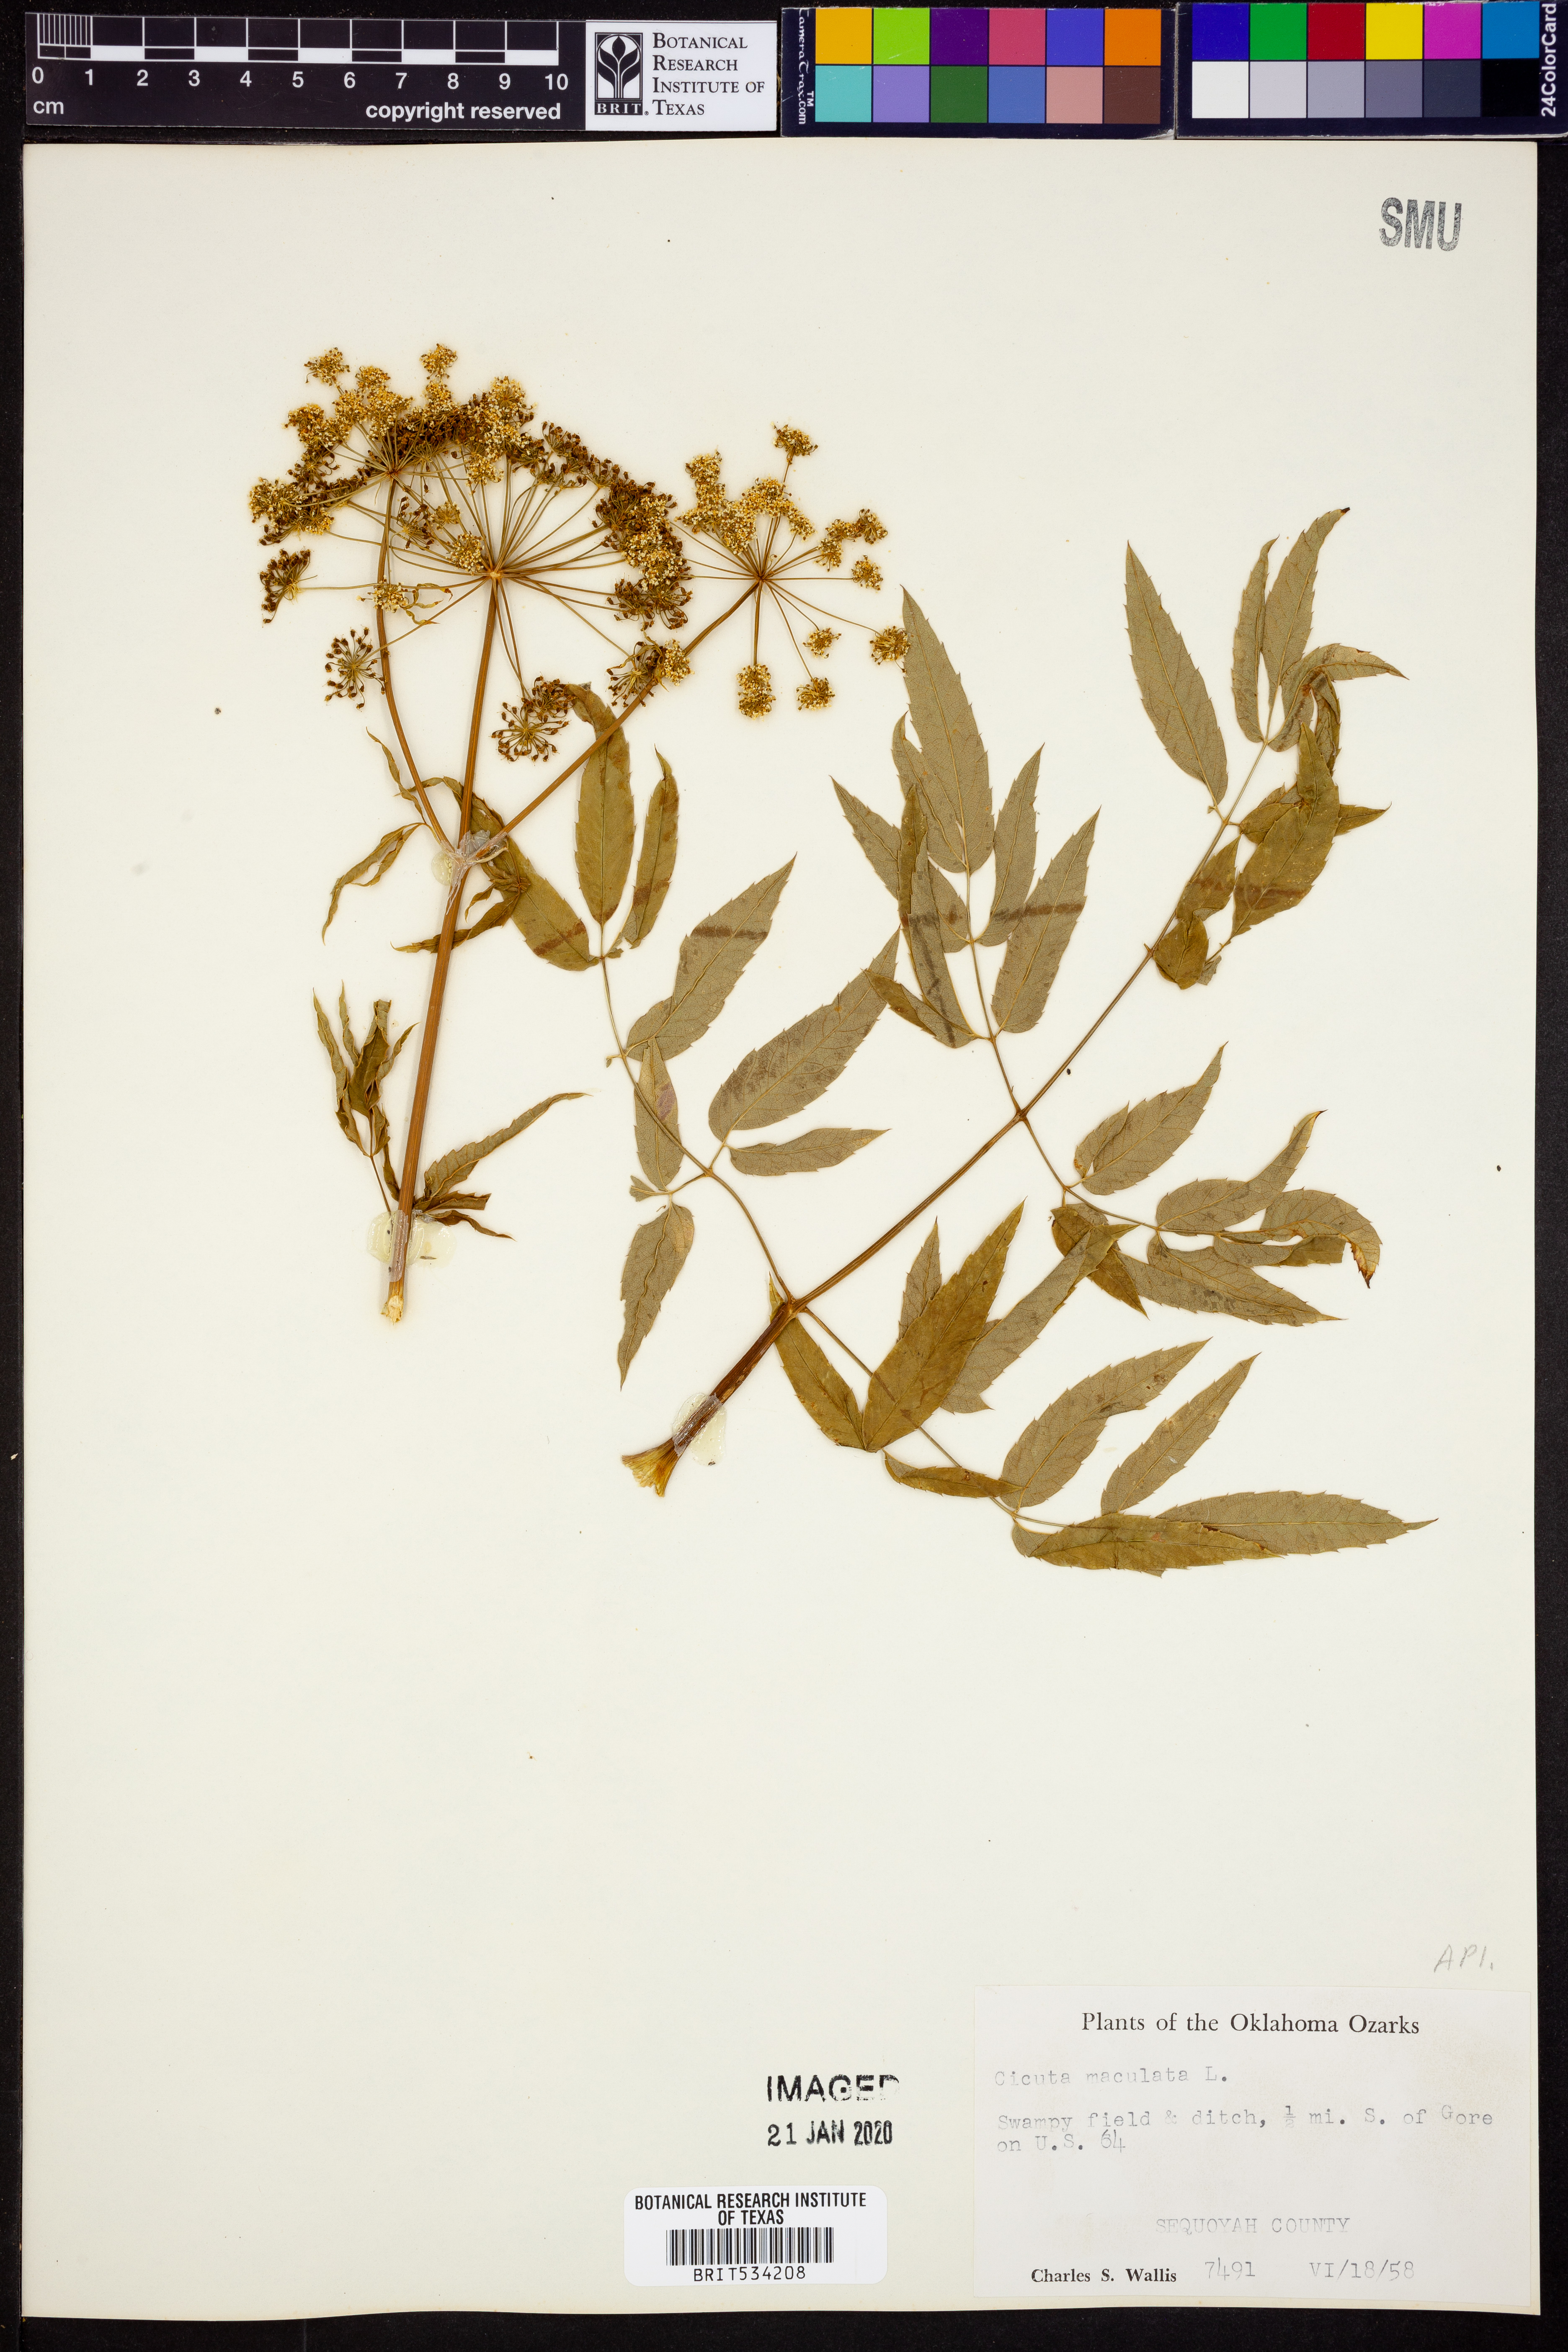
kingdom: Plantae
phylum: Tracheophyta
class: Magnoliopsida
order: Apiales
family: Apiaceae
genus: Cicuta
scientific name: Cicuta maculata
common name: Spotted cowbane
